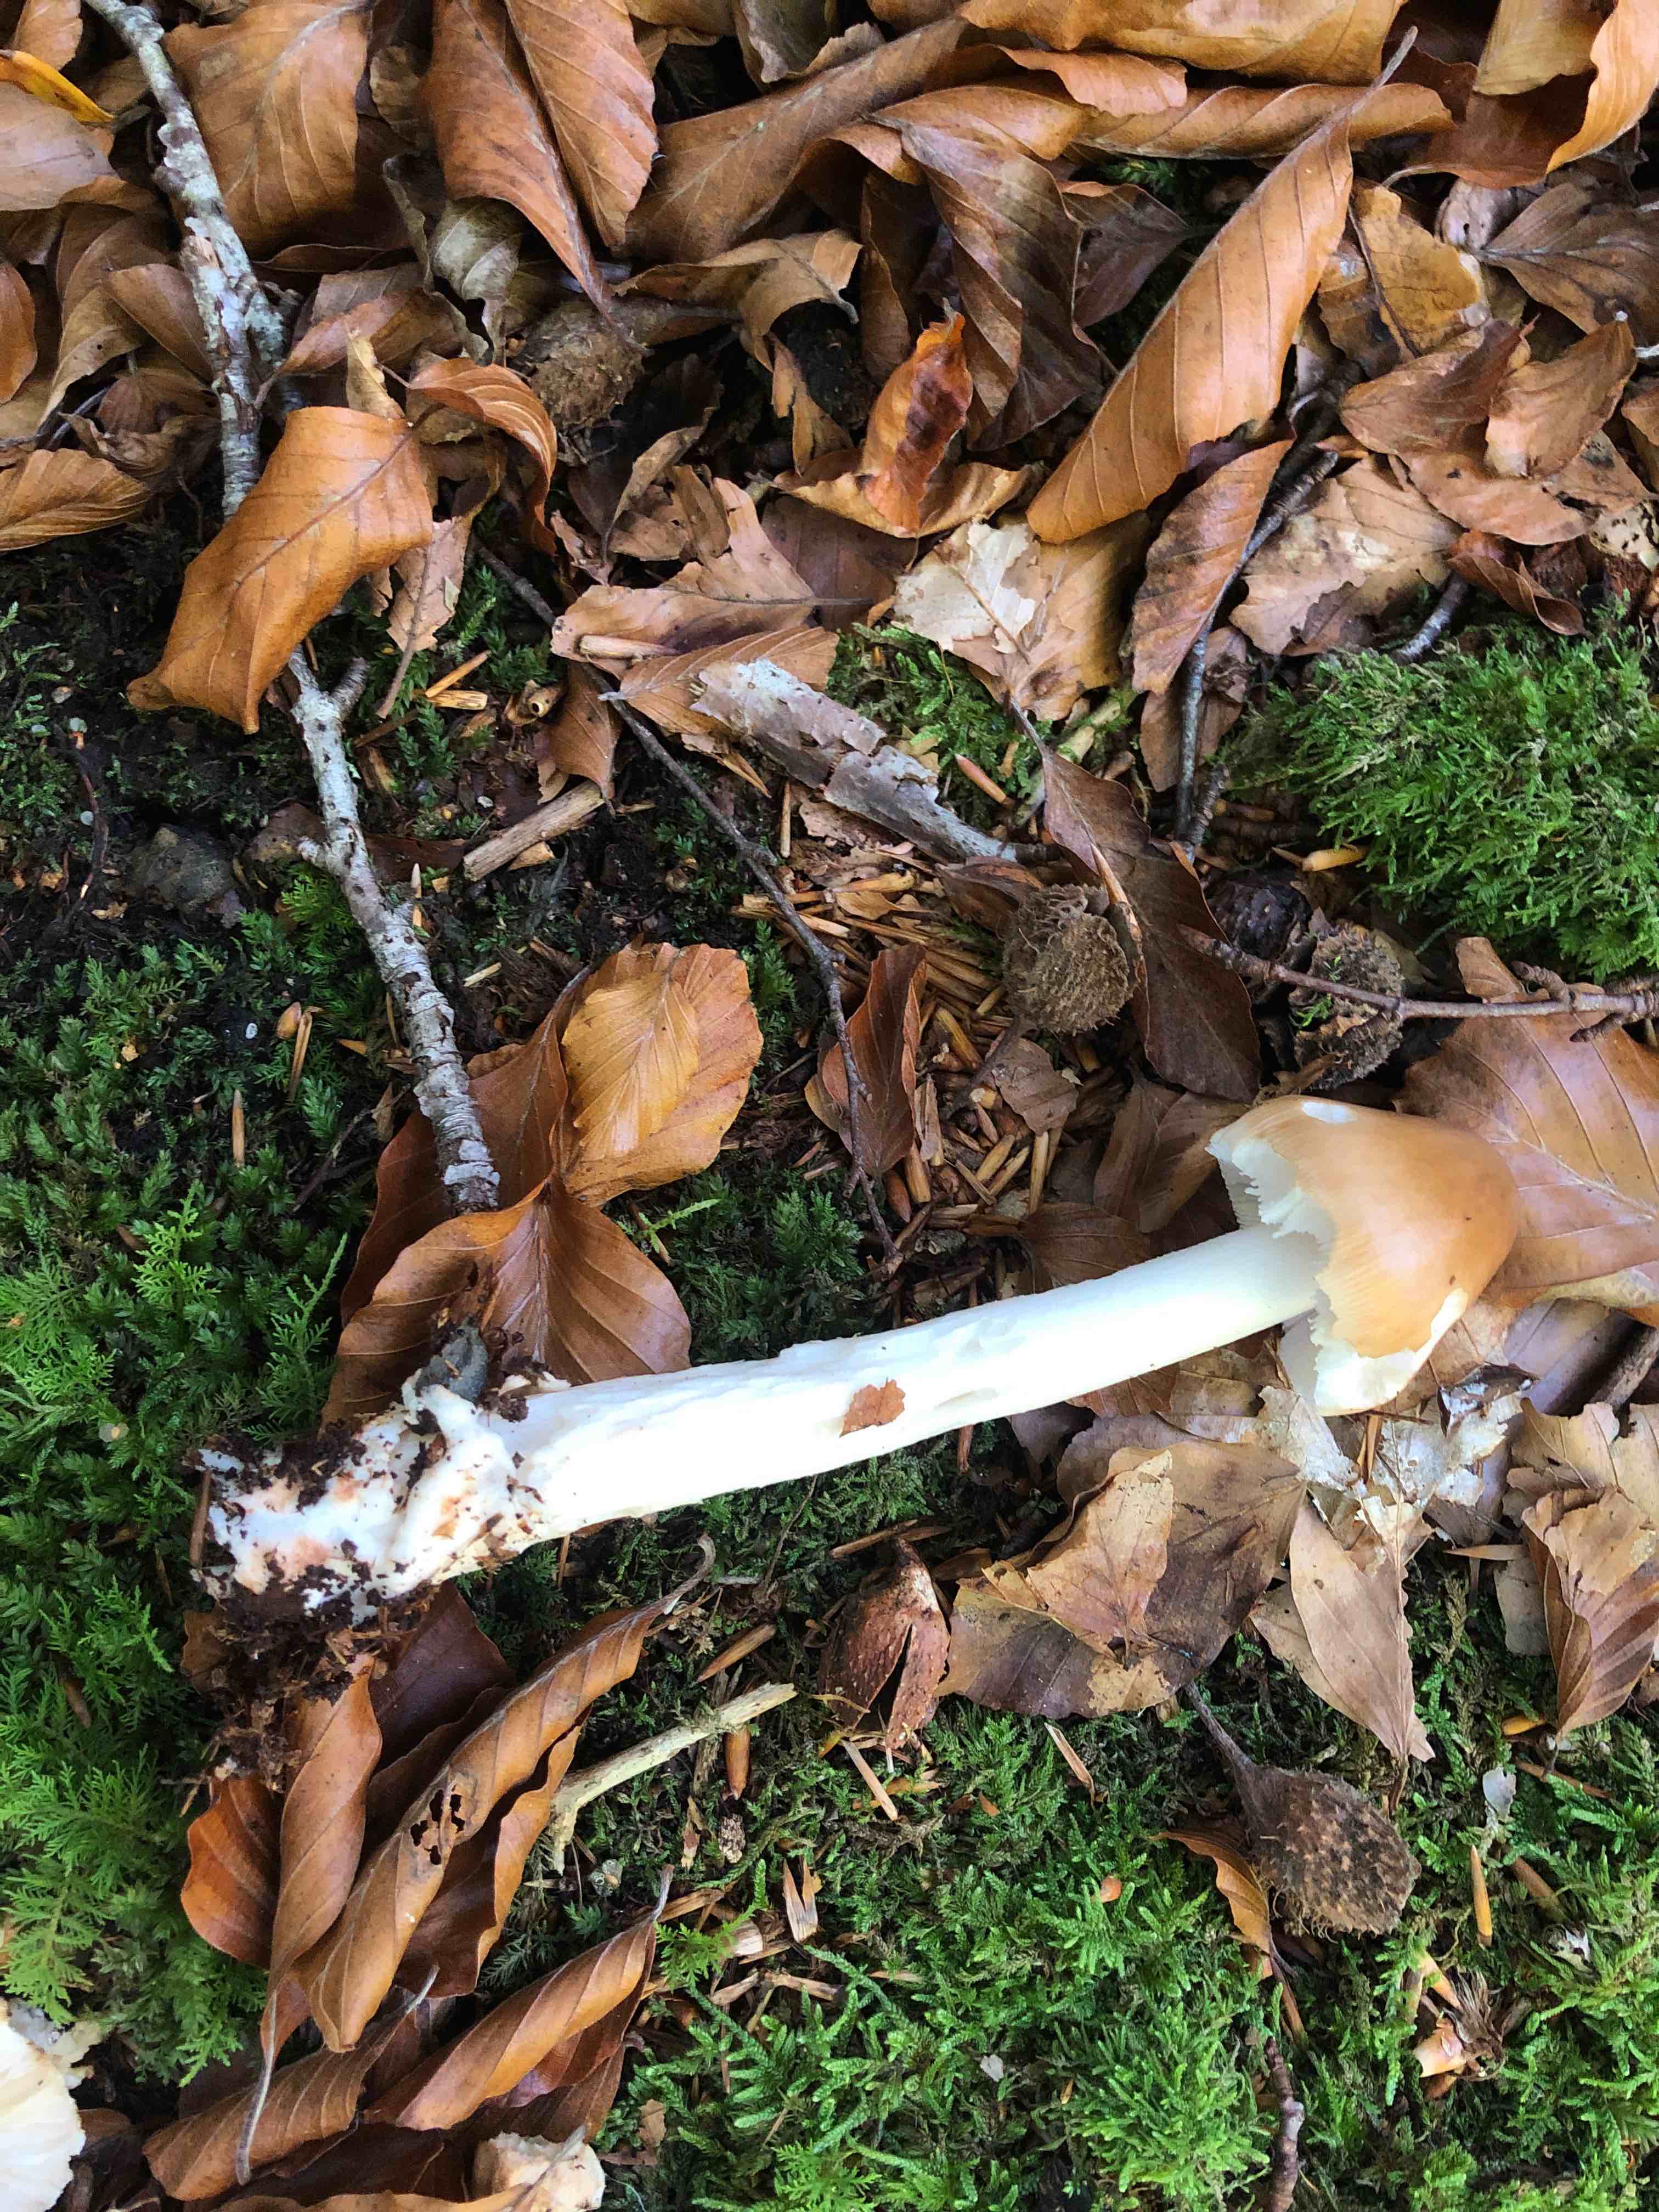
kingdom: Fungi
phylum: Basidiomycota
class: Agaricomycetes
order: Agaricales
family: Amanitaceae
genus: Amanita
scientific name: Amanita fulva
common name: brun kam-fluesvamp
